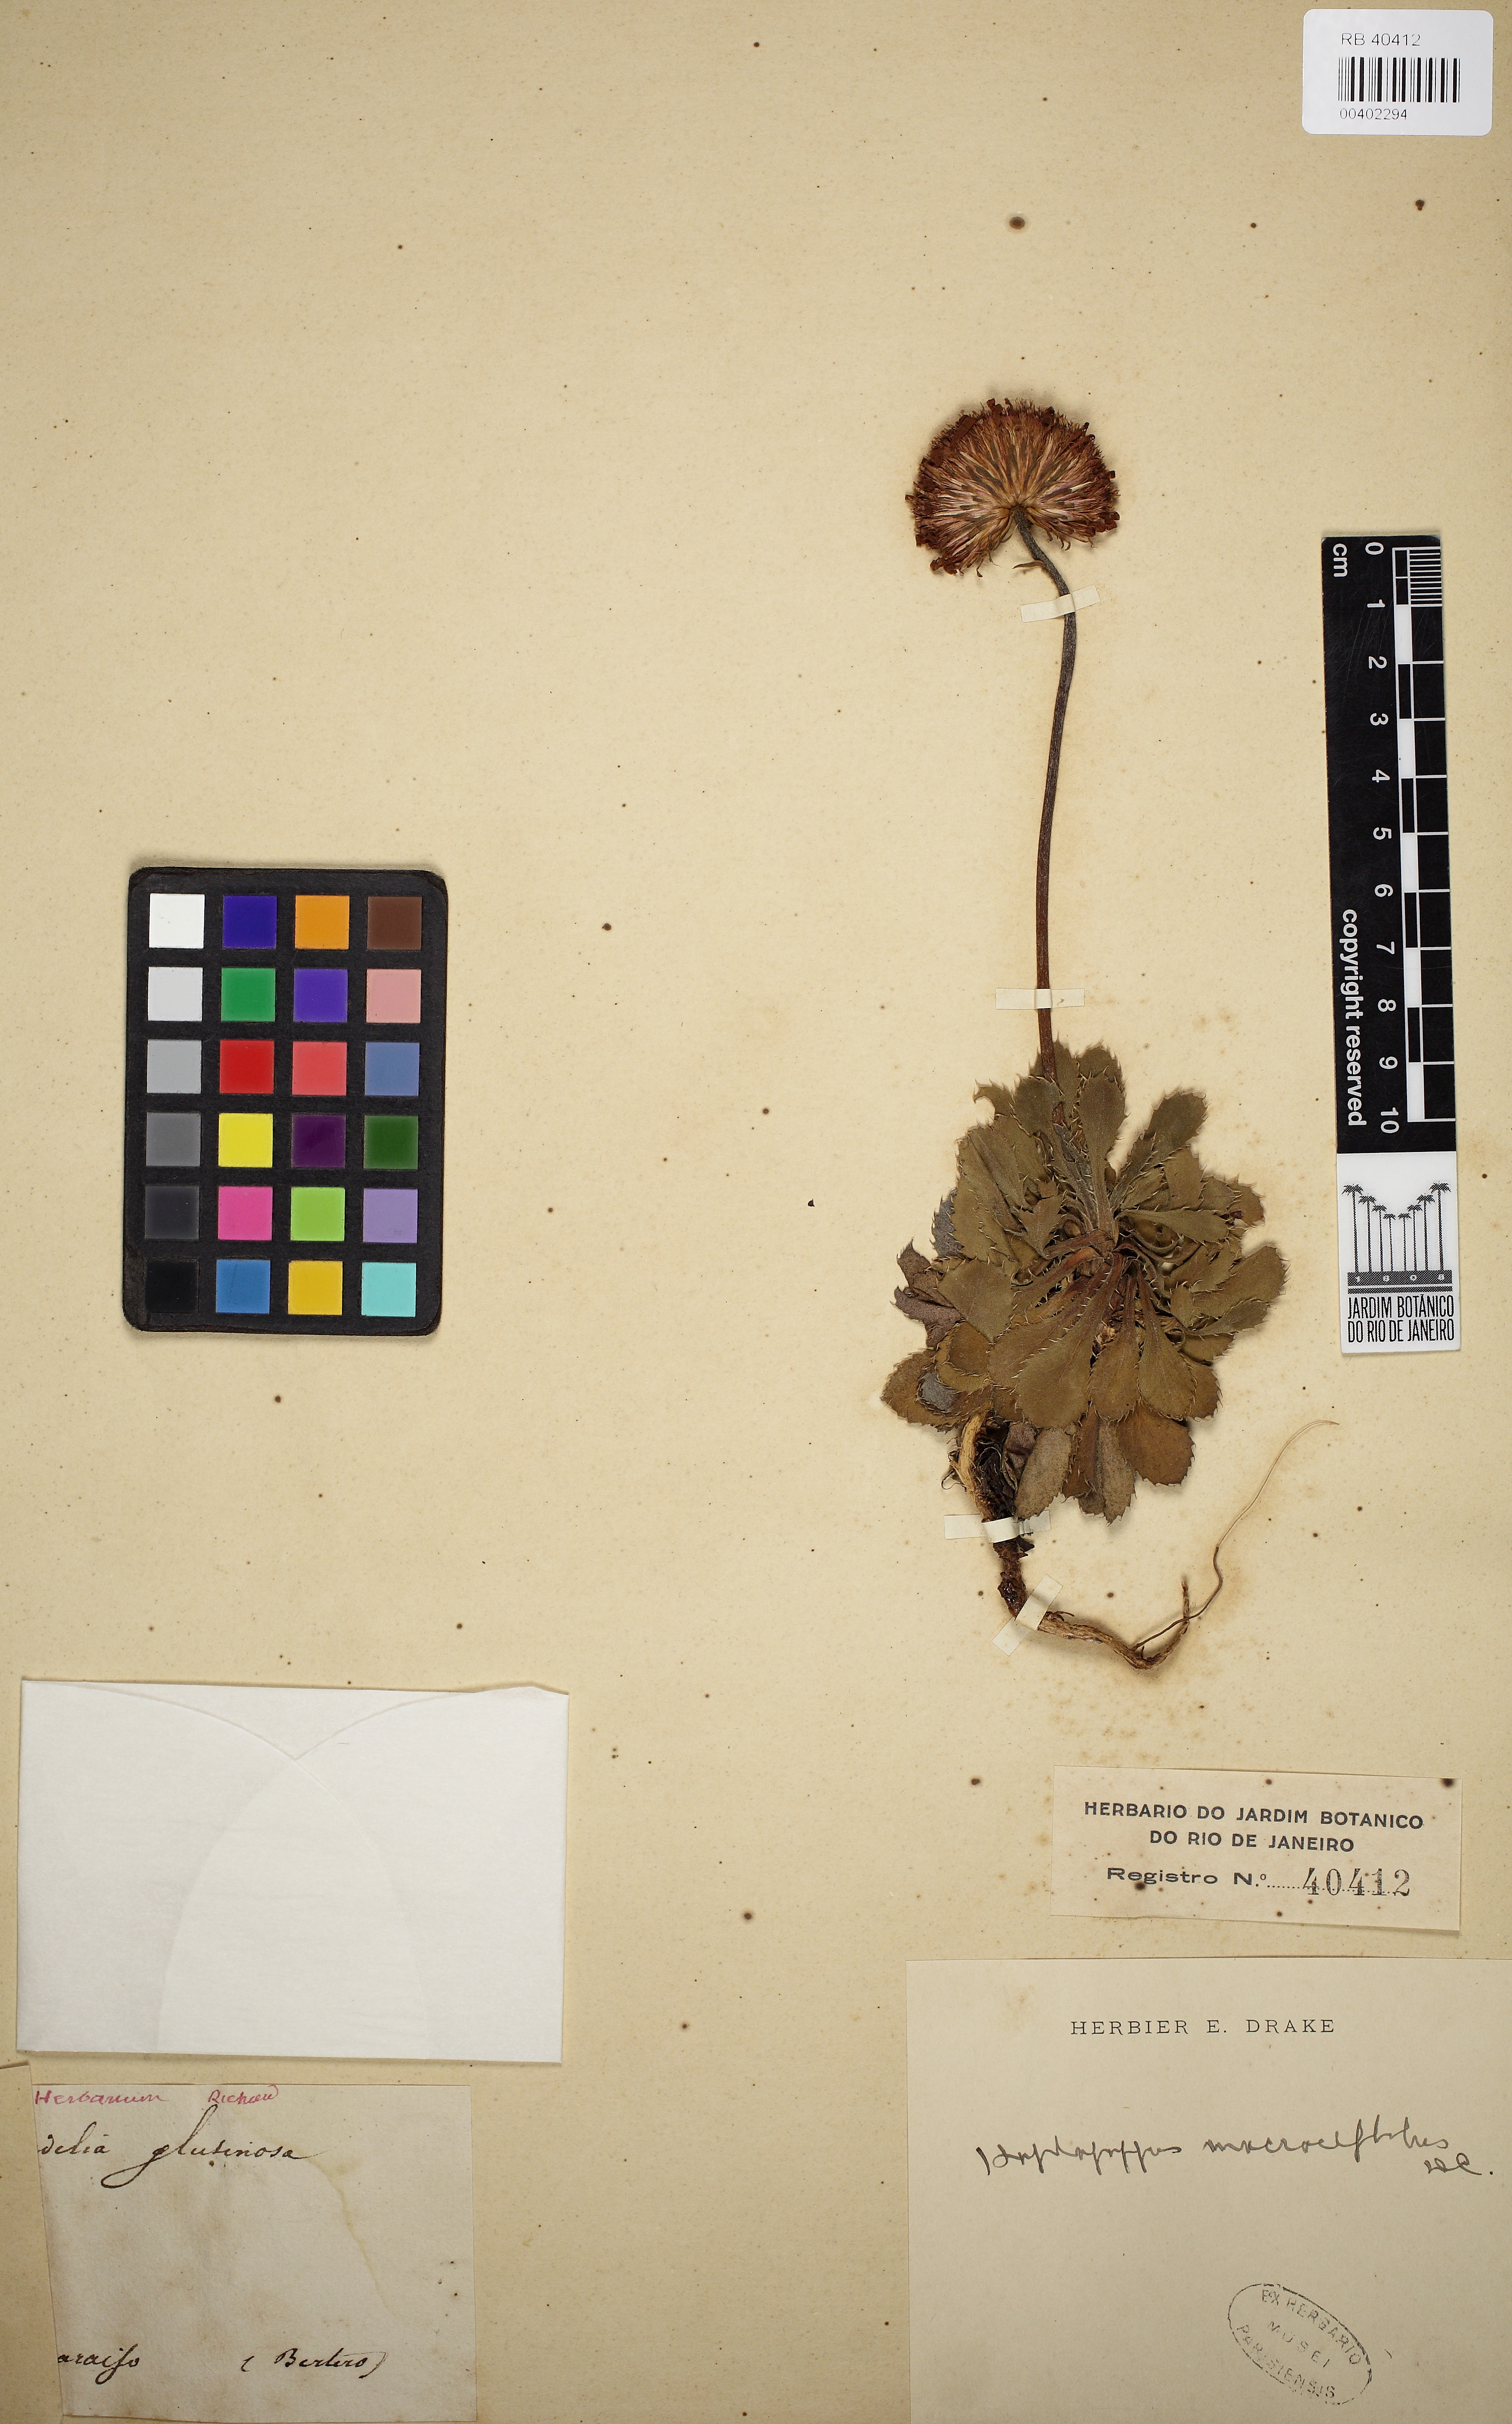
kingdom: Plantae
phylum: Tracheophyta
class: Magnoliopsida
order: Asterales
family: Asteraceae
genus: Haplopappus
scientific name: Haplopappus macrocephalus
